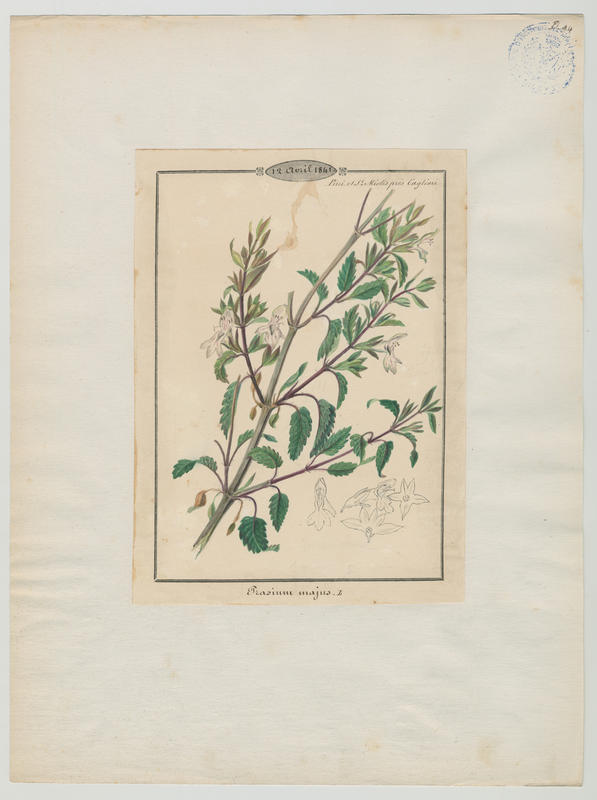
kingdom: Plantae
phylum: Tracheophyta
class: Magnoliopsida
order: Lamiales
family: Lamiaceae
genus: Prasium
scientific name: Prasium majus
